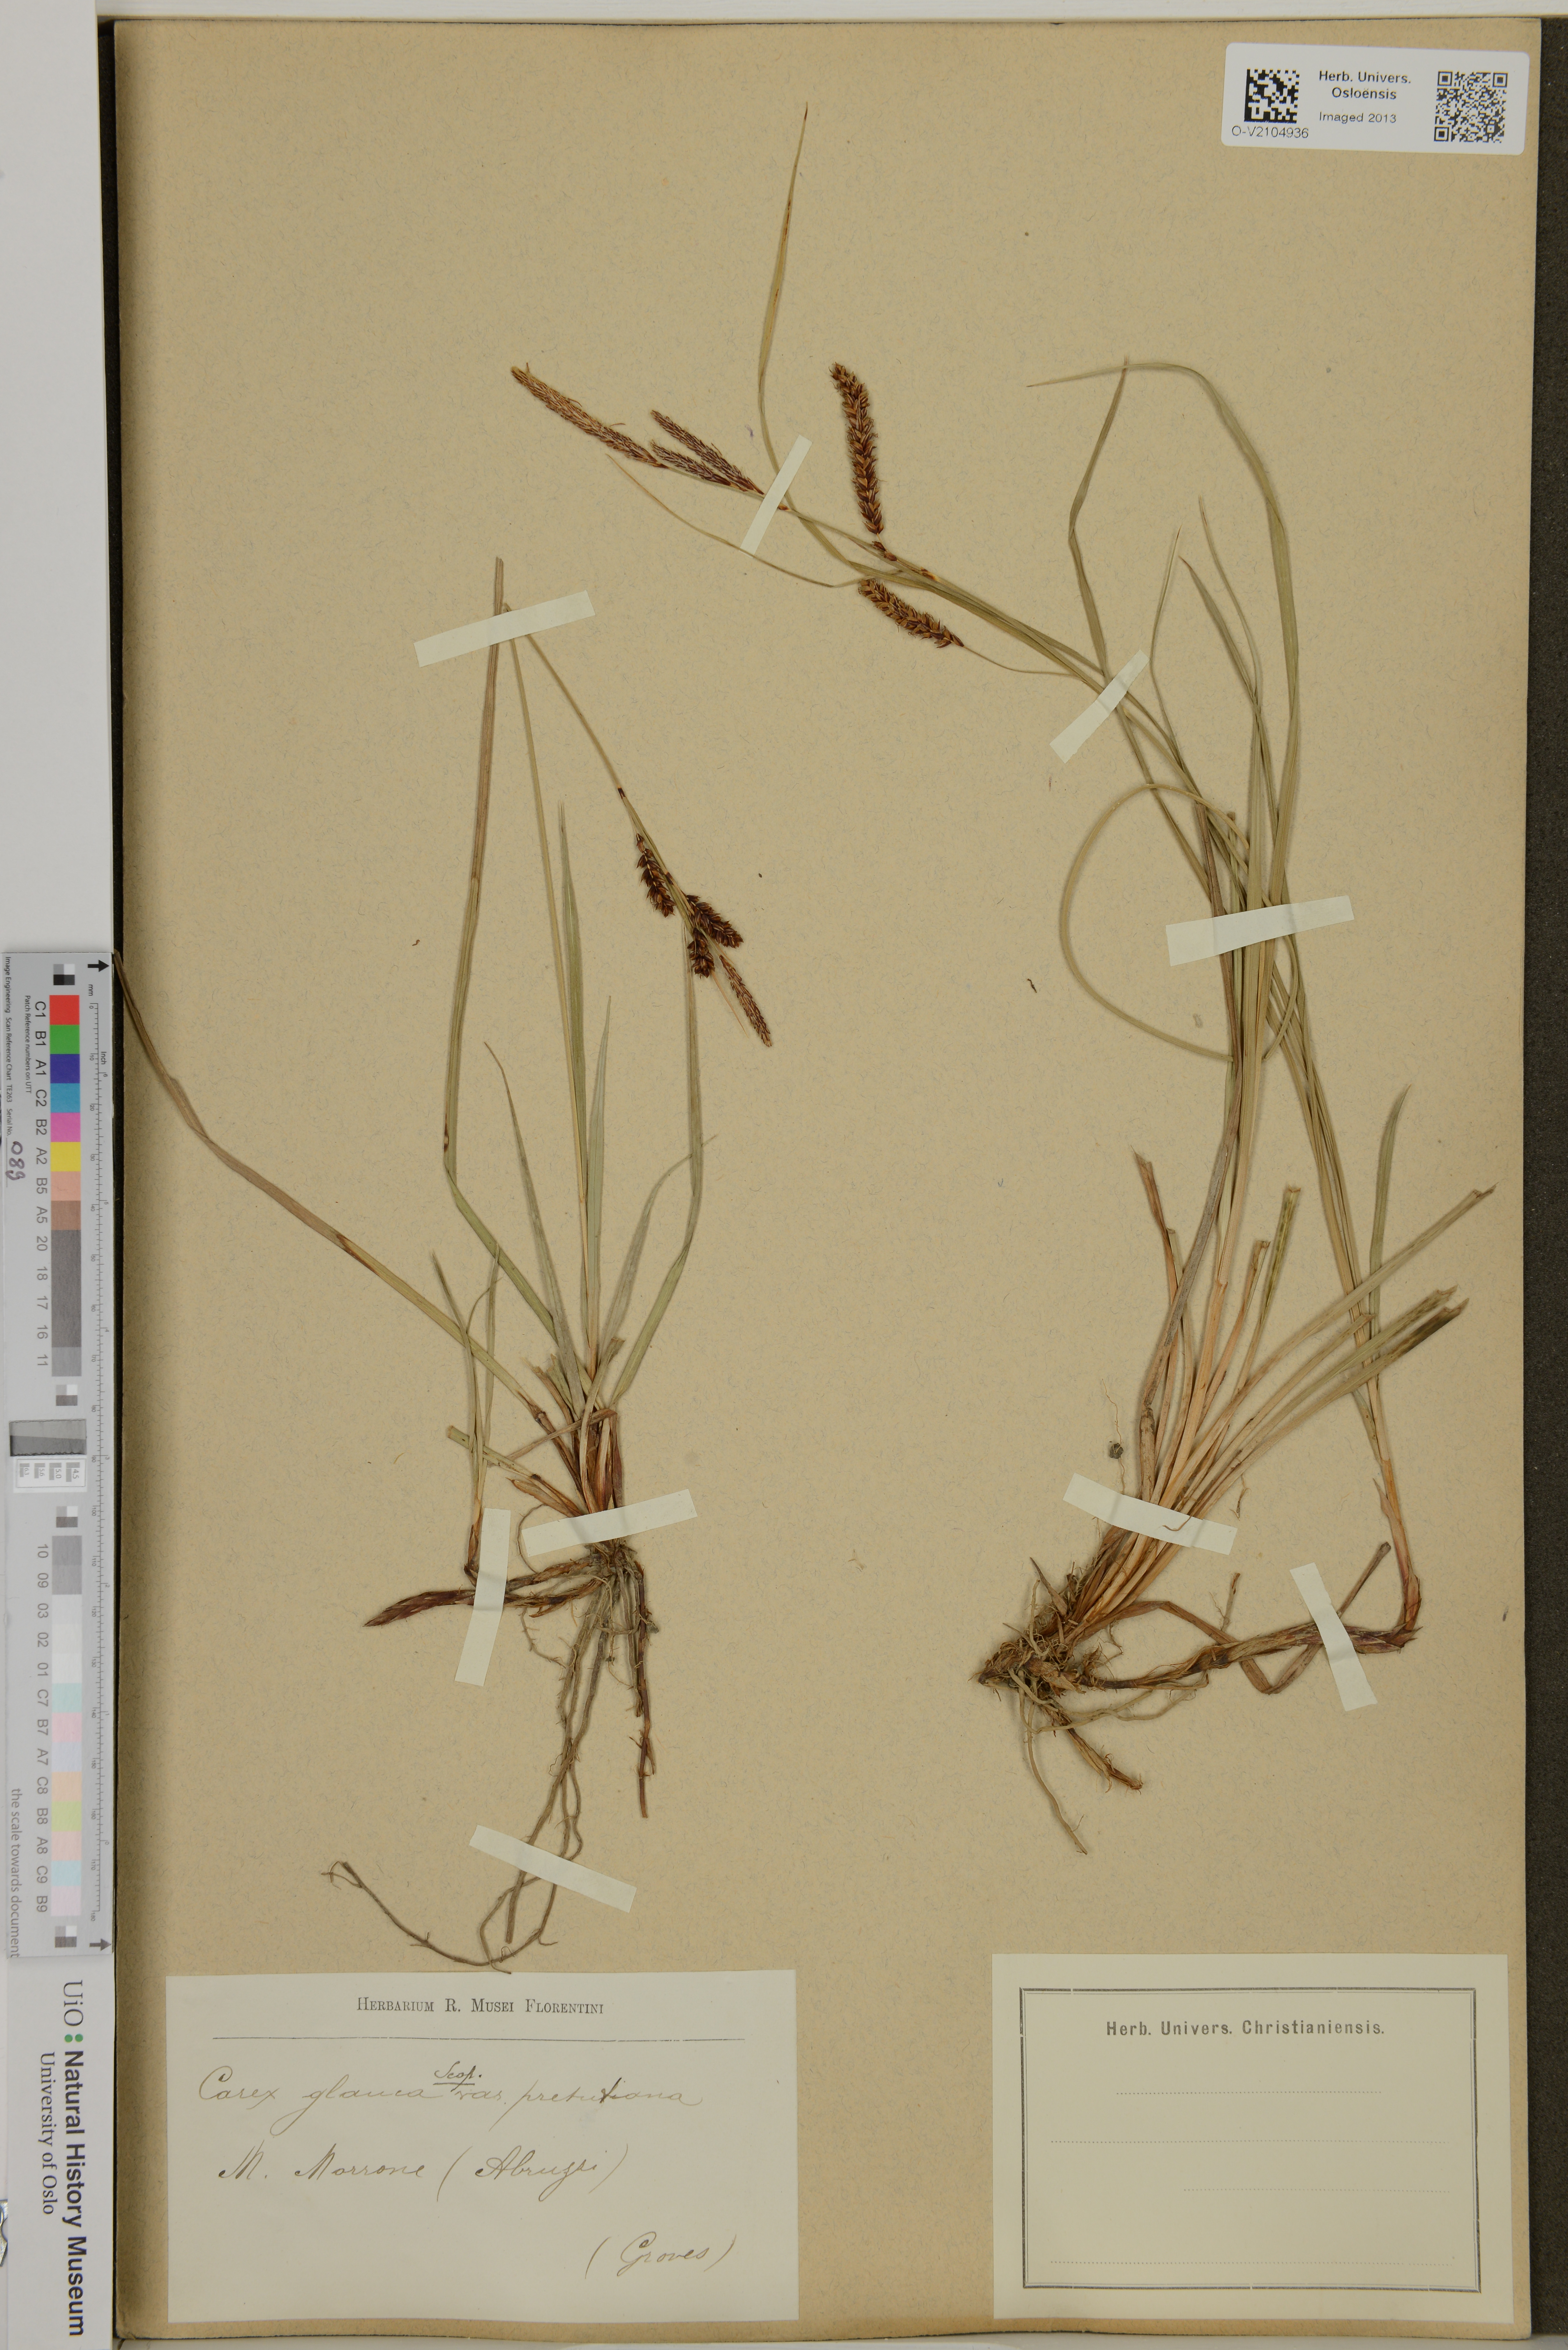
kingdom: Plantae
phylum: Tracheophyta
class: Liliopsida
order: Poales
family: Cyperaceae
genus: Carex
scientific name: Carex flacca
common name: Glaucous sedge
